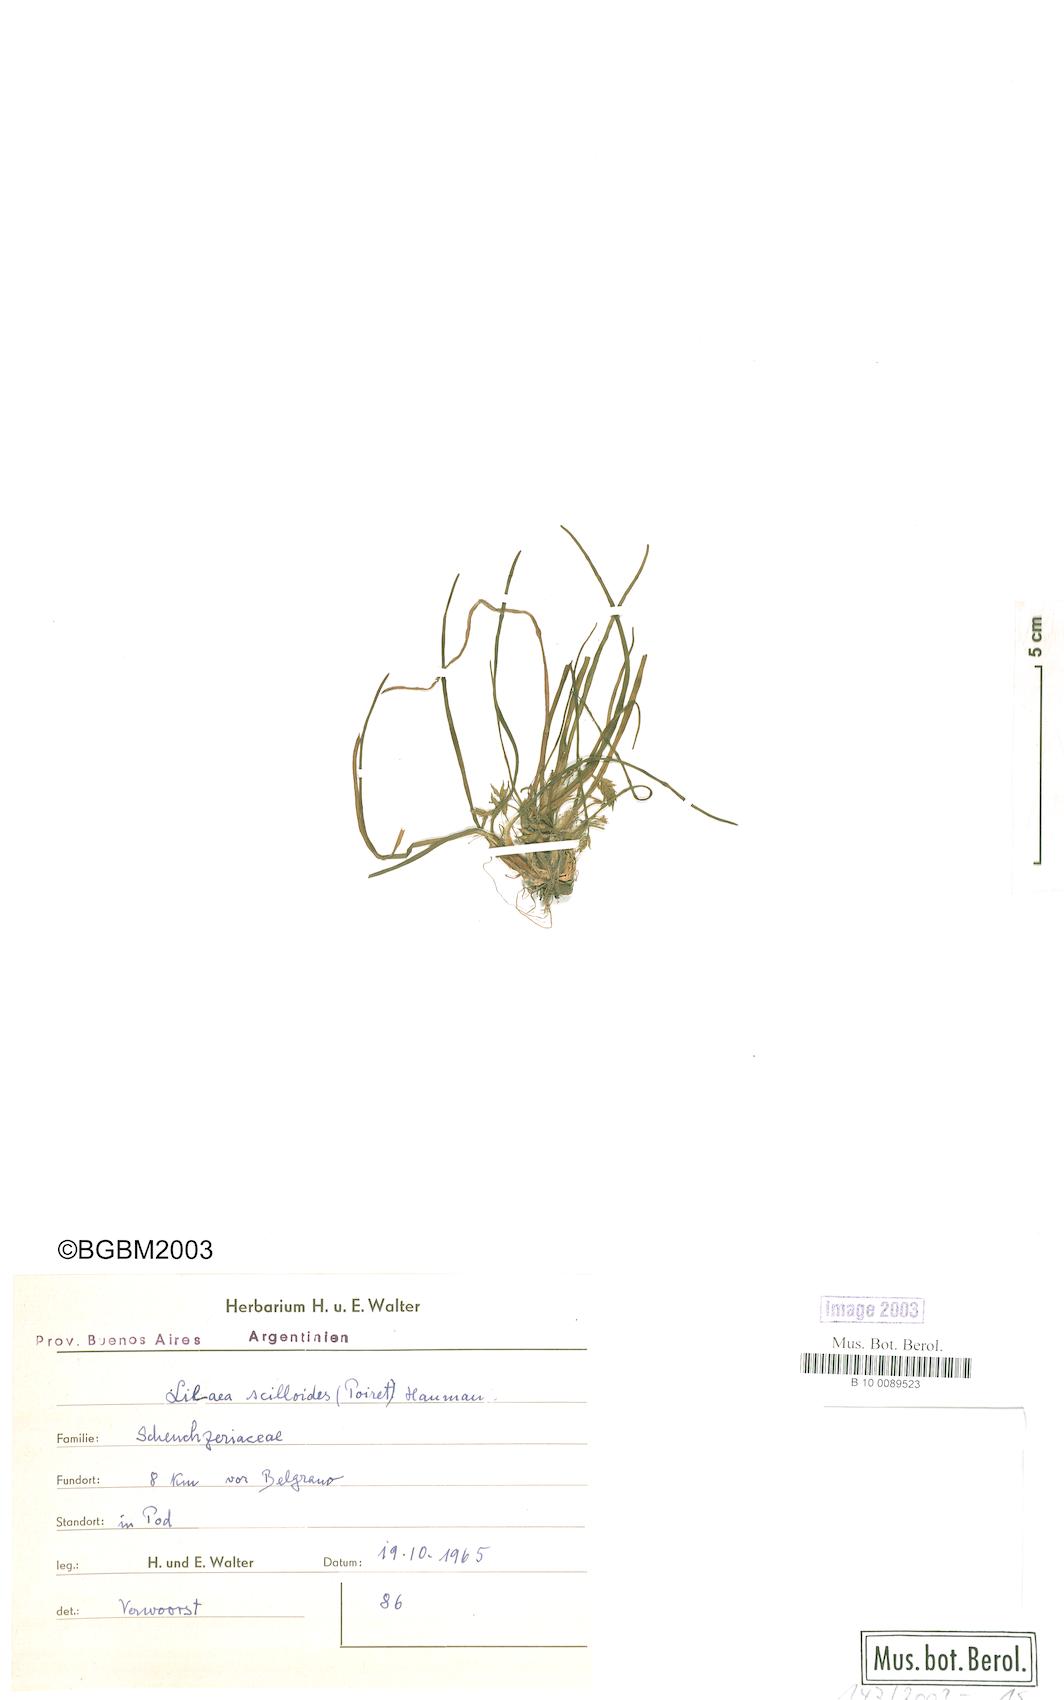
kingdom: Plantae
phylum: Tracheophyta
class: Liliopsida
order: Alismatales
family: Juncaginaceae
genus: Triglochin
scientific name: Triglochin scilloides
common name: Awl-leaved lilaea
